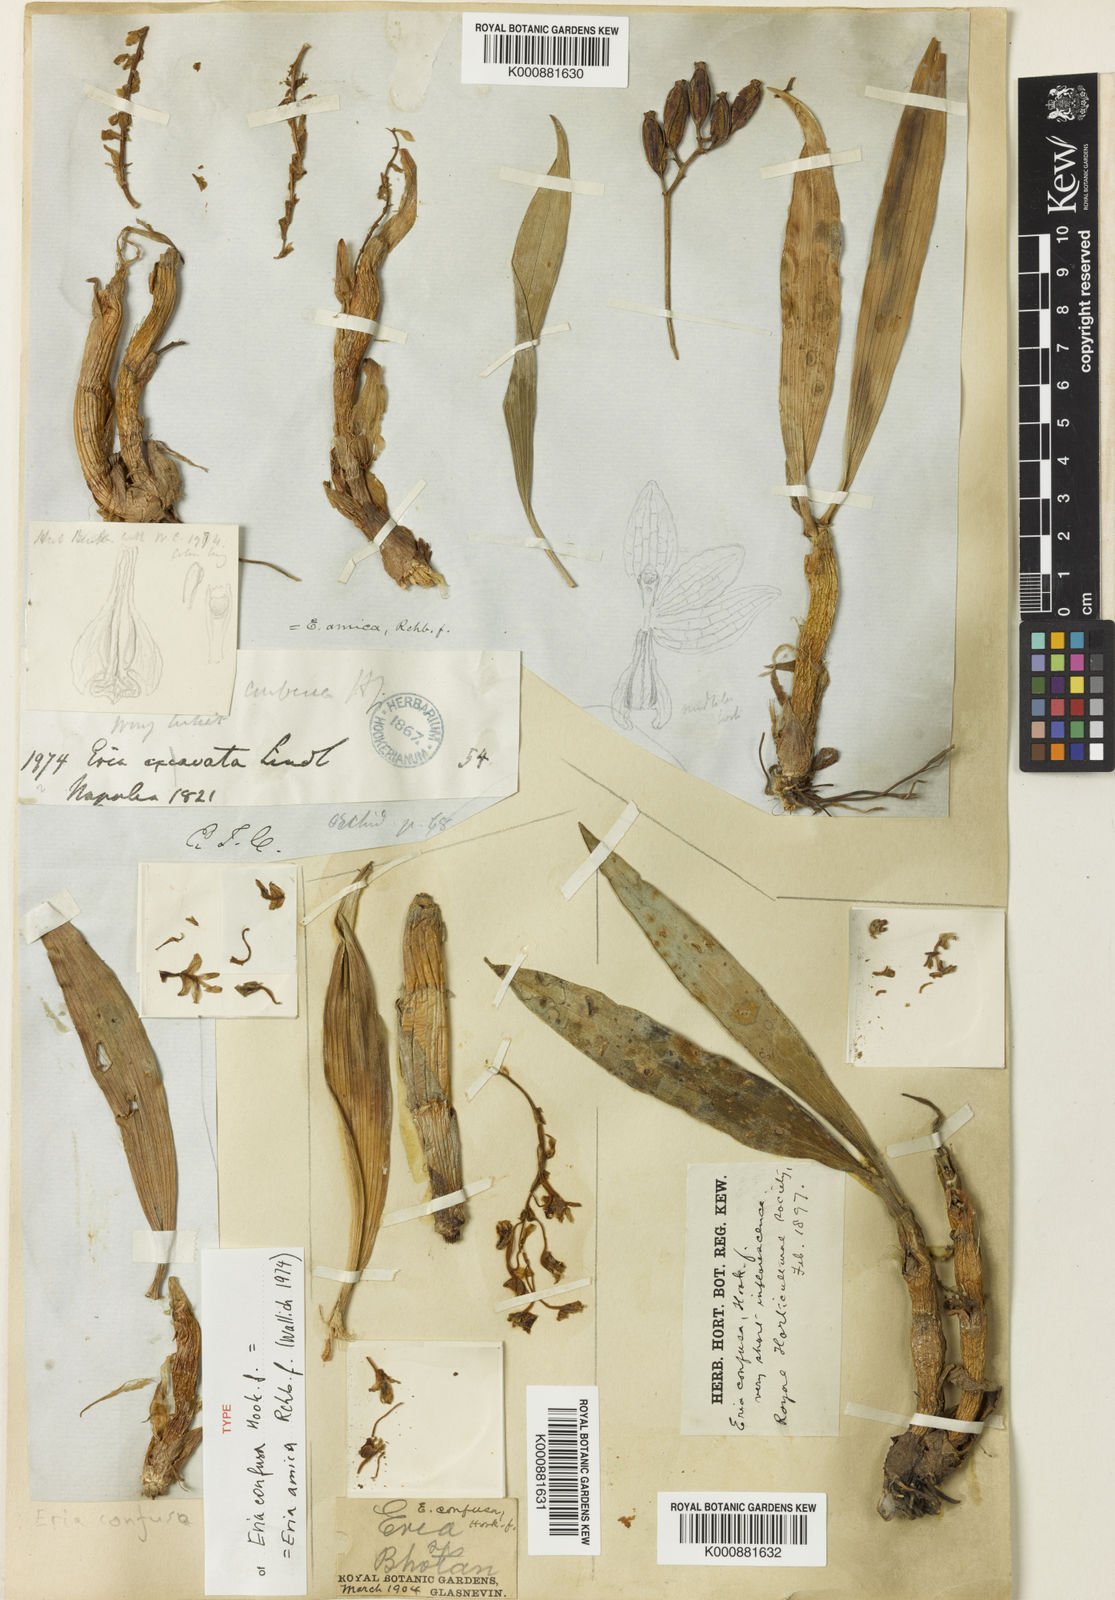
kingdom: Plantae
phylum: Tracheophyta
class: Liliopsida
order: Asparagales
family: Orchidaceae
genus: Pinalia
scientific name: Pinalia amica
